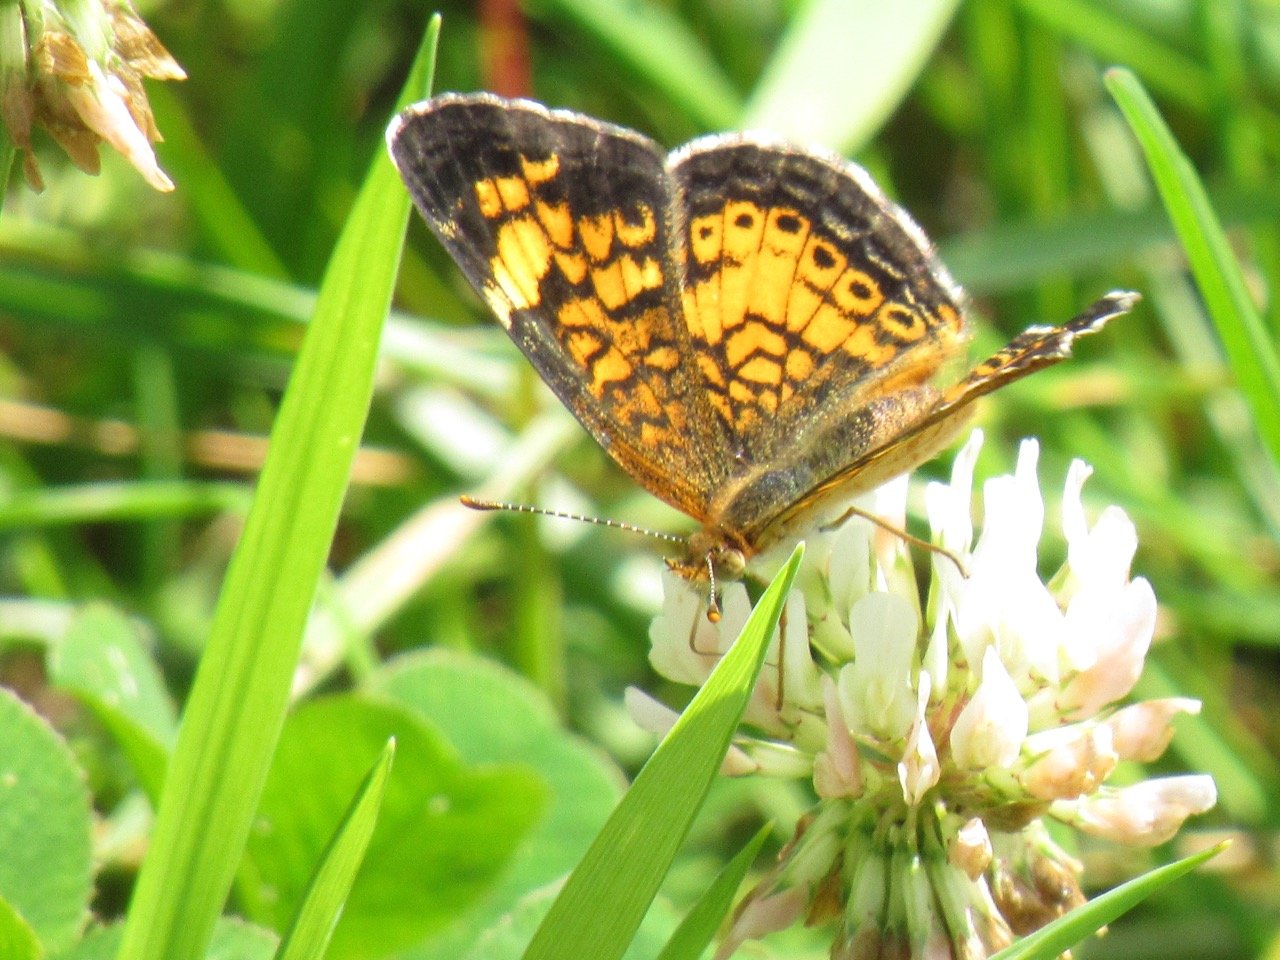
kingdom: Animalia
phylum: Arthropoda
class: Insecta
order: Lepidoptera
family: Nymphalidae
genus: Phyciodes
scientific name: Phyciodes tharos
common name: Pearl Crescent
